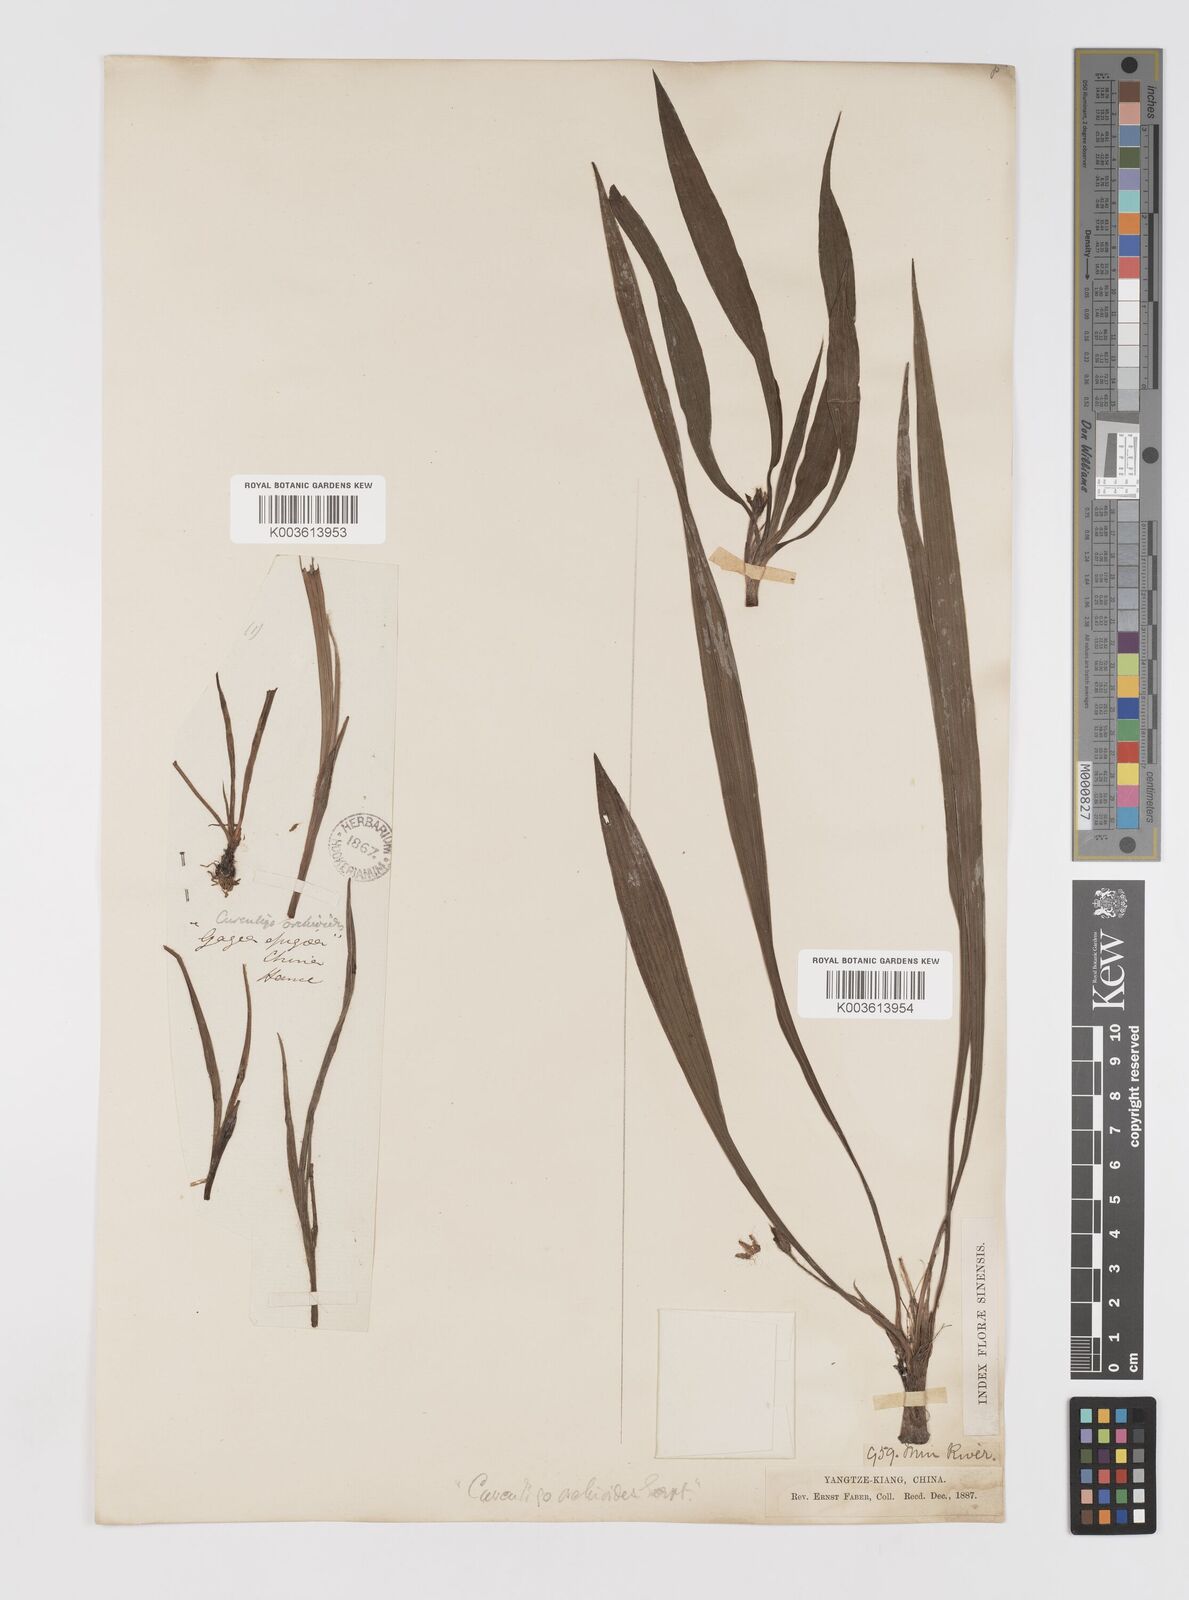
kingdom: Plantae
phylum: Tracheophyta
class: Liliopsida
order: Asparagales
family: Hypoxidaceae
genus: Curculigo
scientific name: Curculigo orchioides
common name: Golden eye-grass
